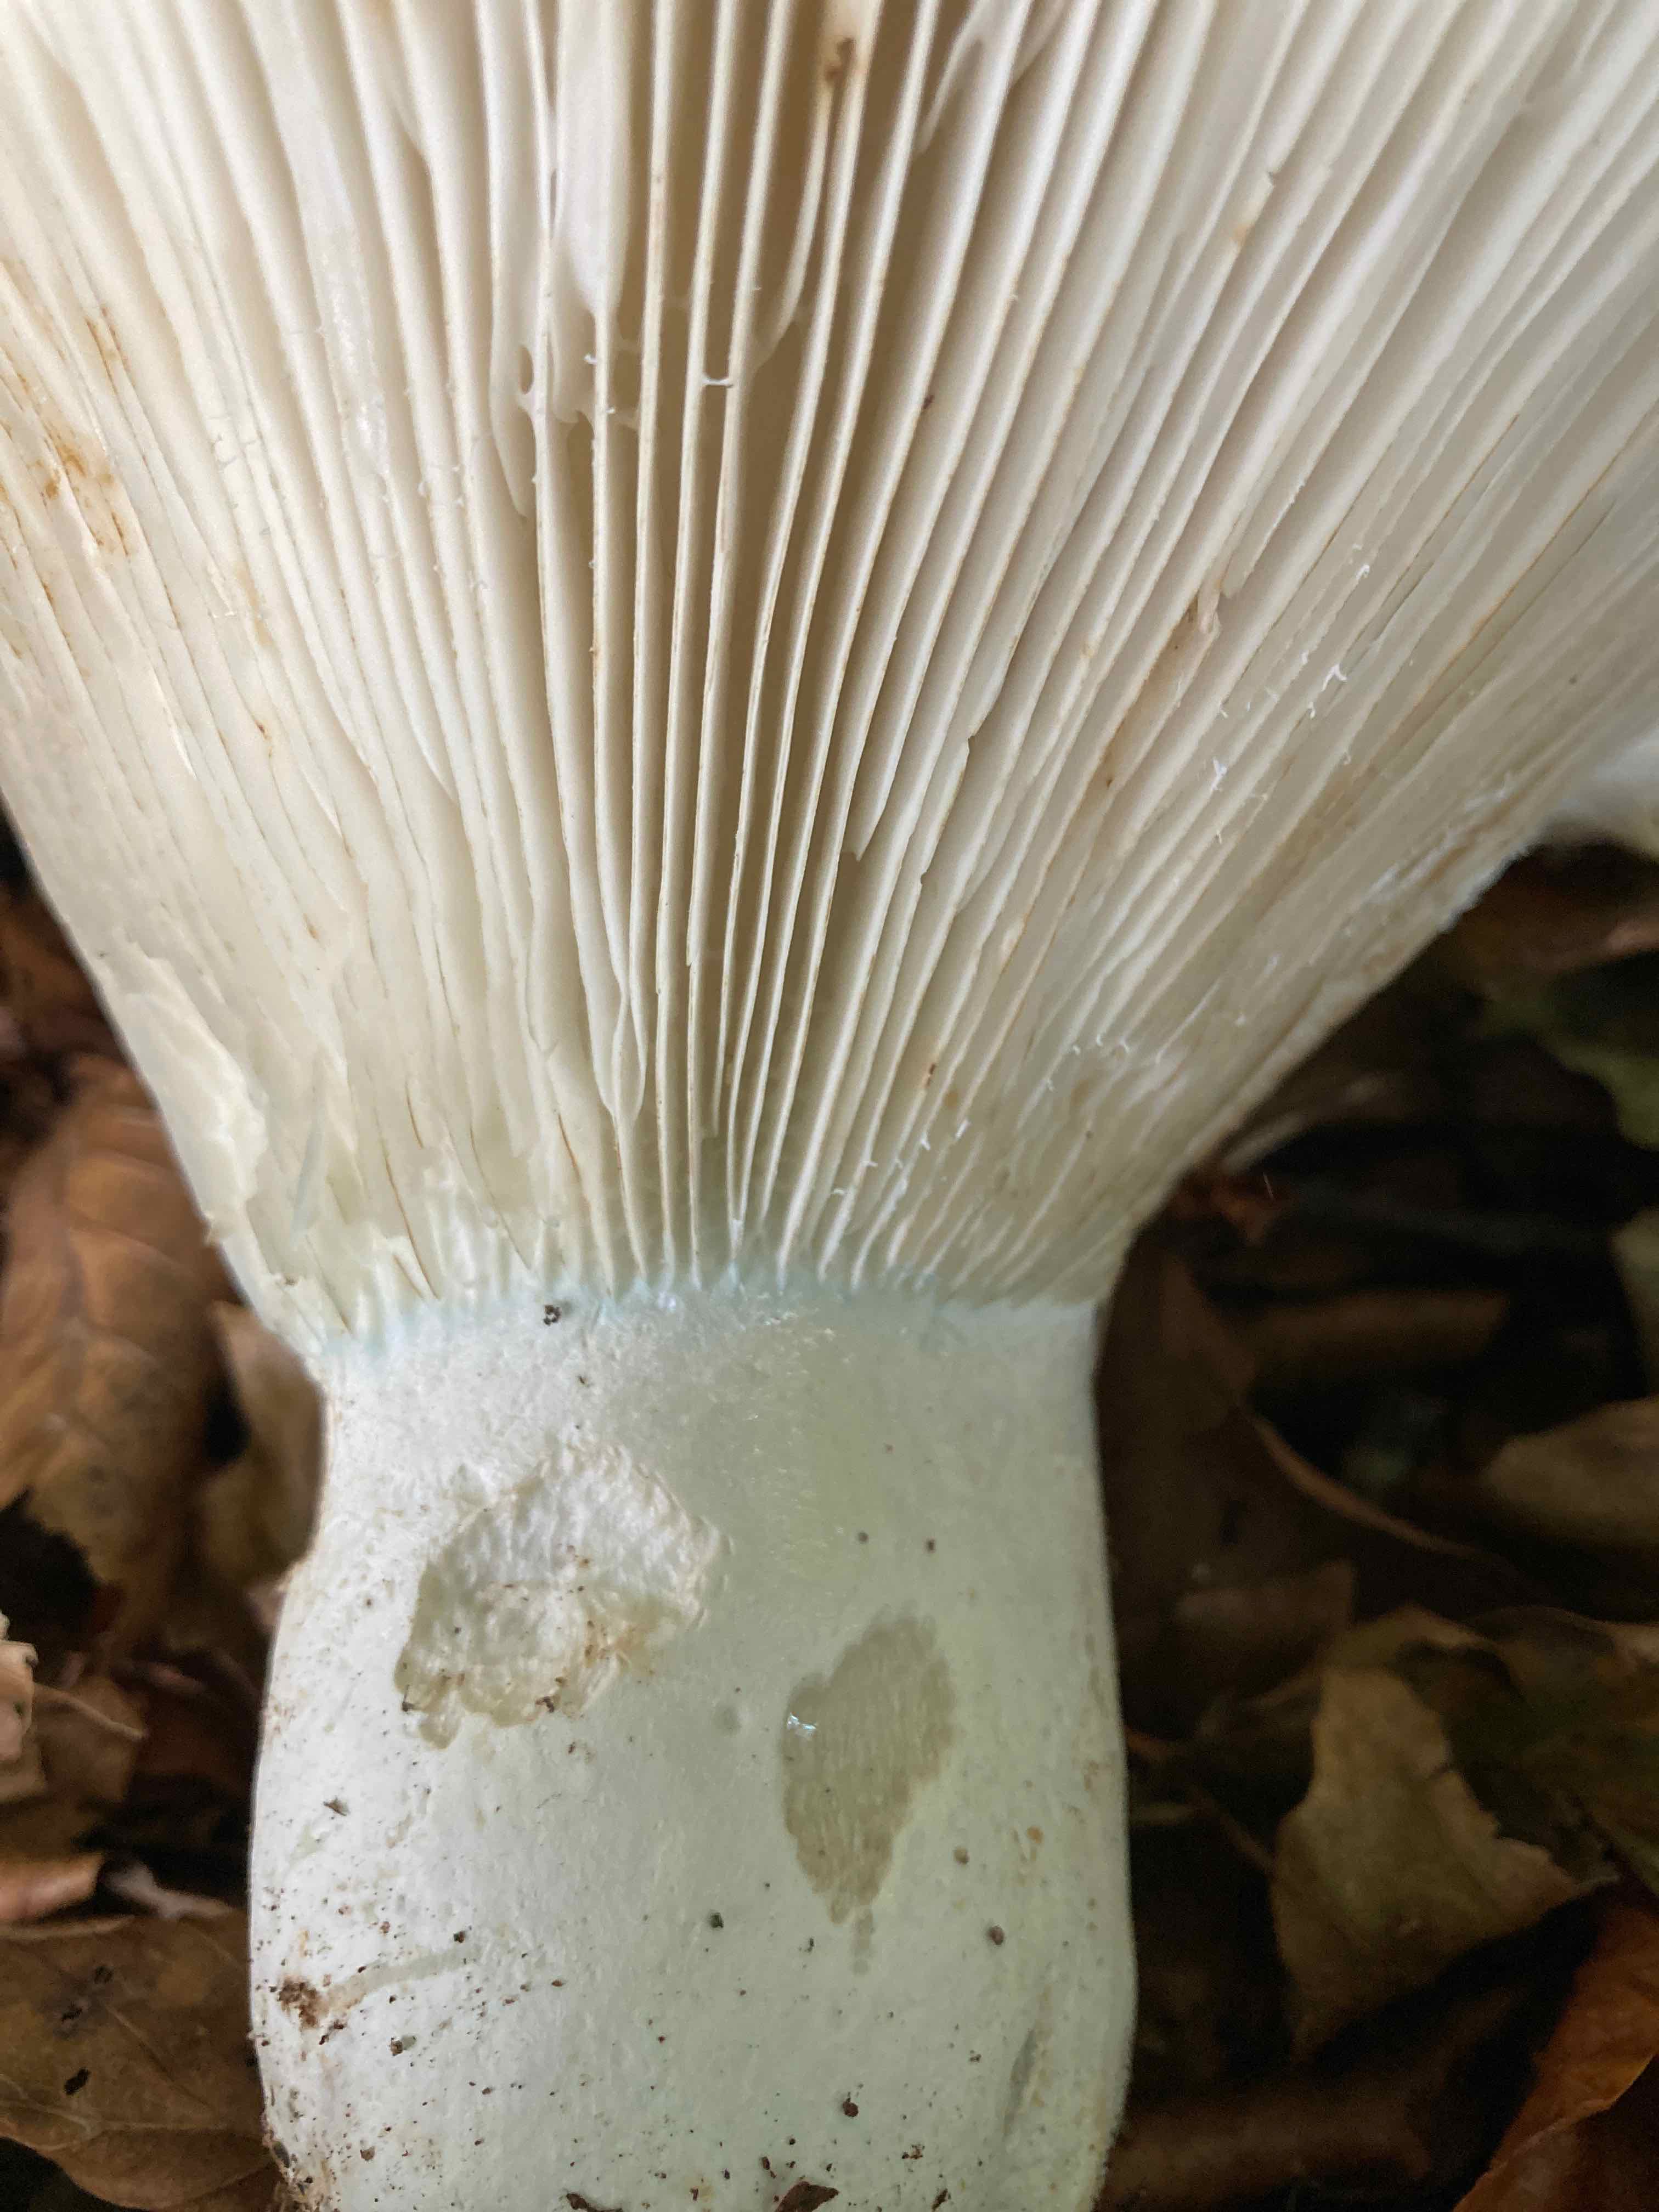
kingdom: Fungi
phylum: Basidiomycota
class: Agaricomycetes
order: Russulales
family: Russulaceae
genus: Russula
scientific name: Russula chloroides
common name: grønhalset tragt-skørhat
